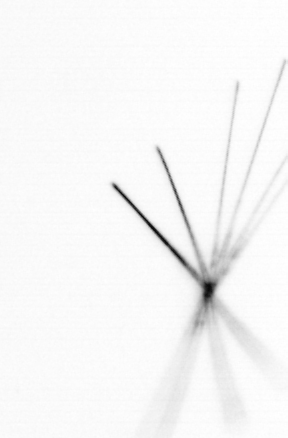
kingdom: Chromista
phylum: Ochrophyta
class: Bacillariophyceae
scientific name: Bacillariophyceae
